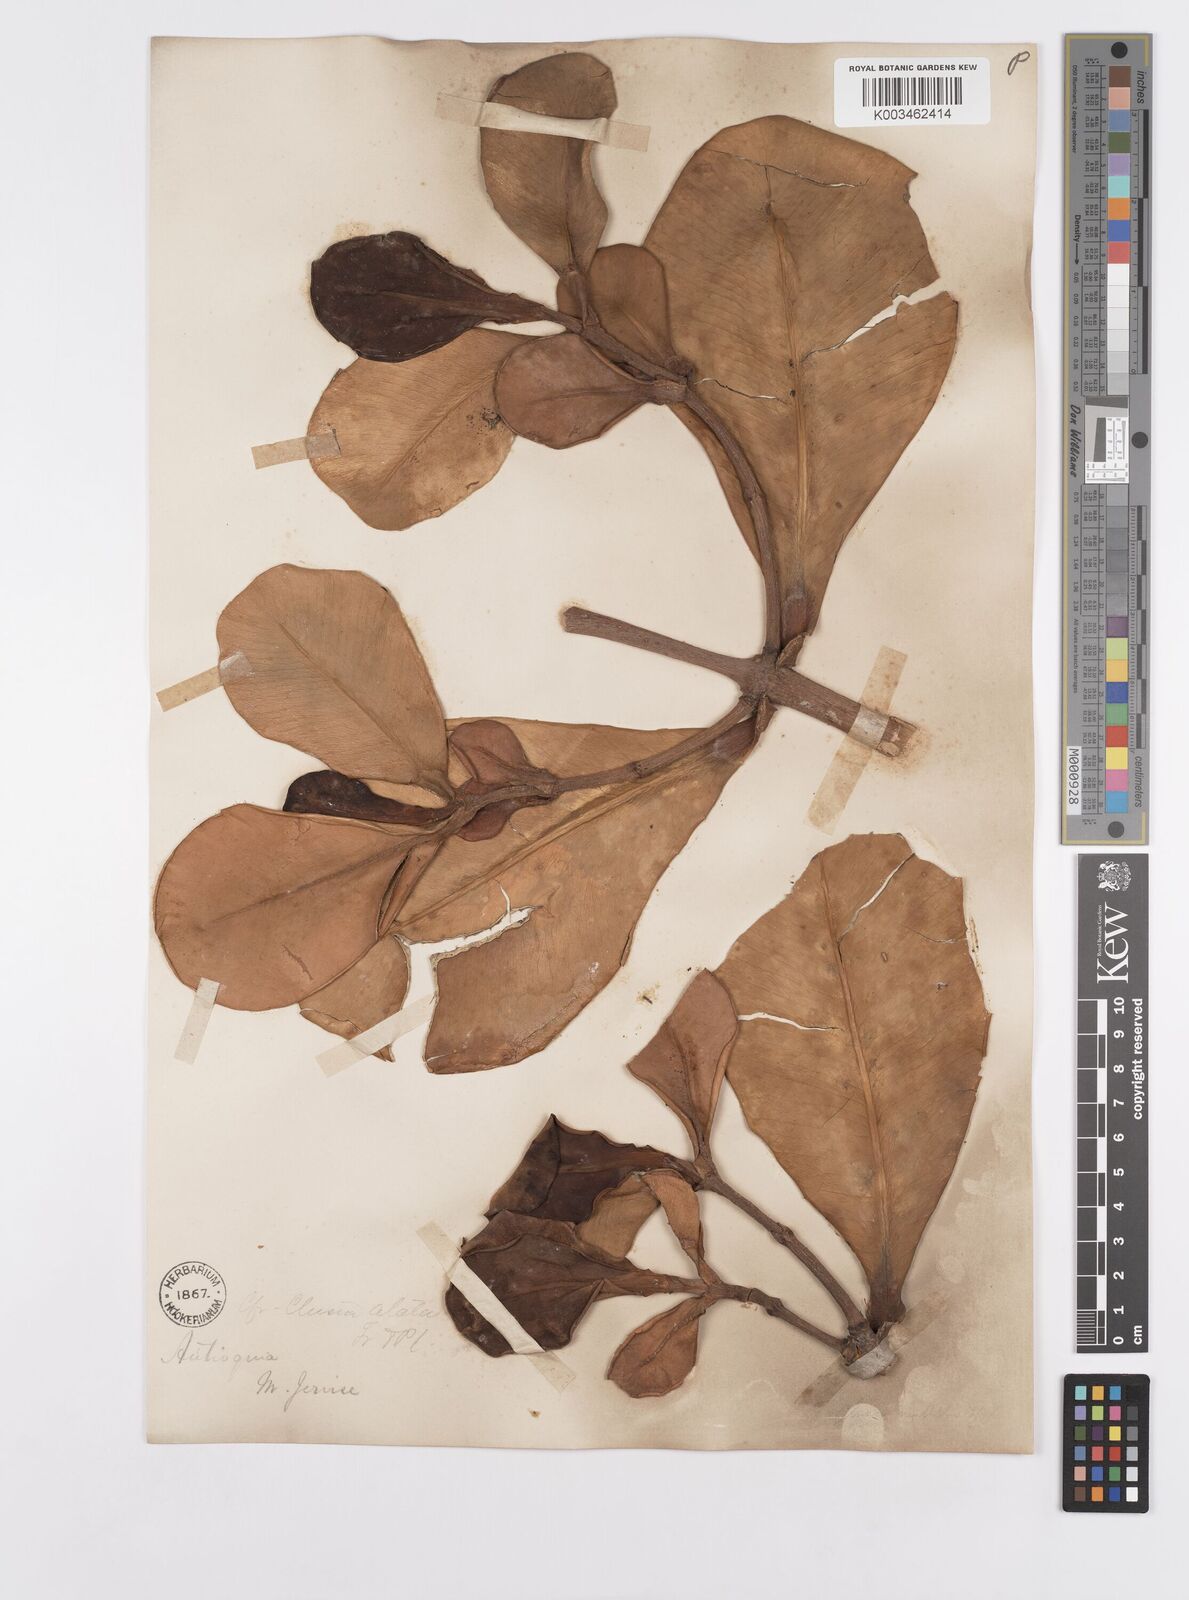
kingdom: Plantae
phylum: Tracheophyta
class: Magnoliopsida
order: Malpighiales
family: Clusiaceae
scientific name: Clusiaceae
